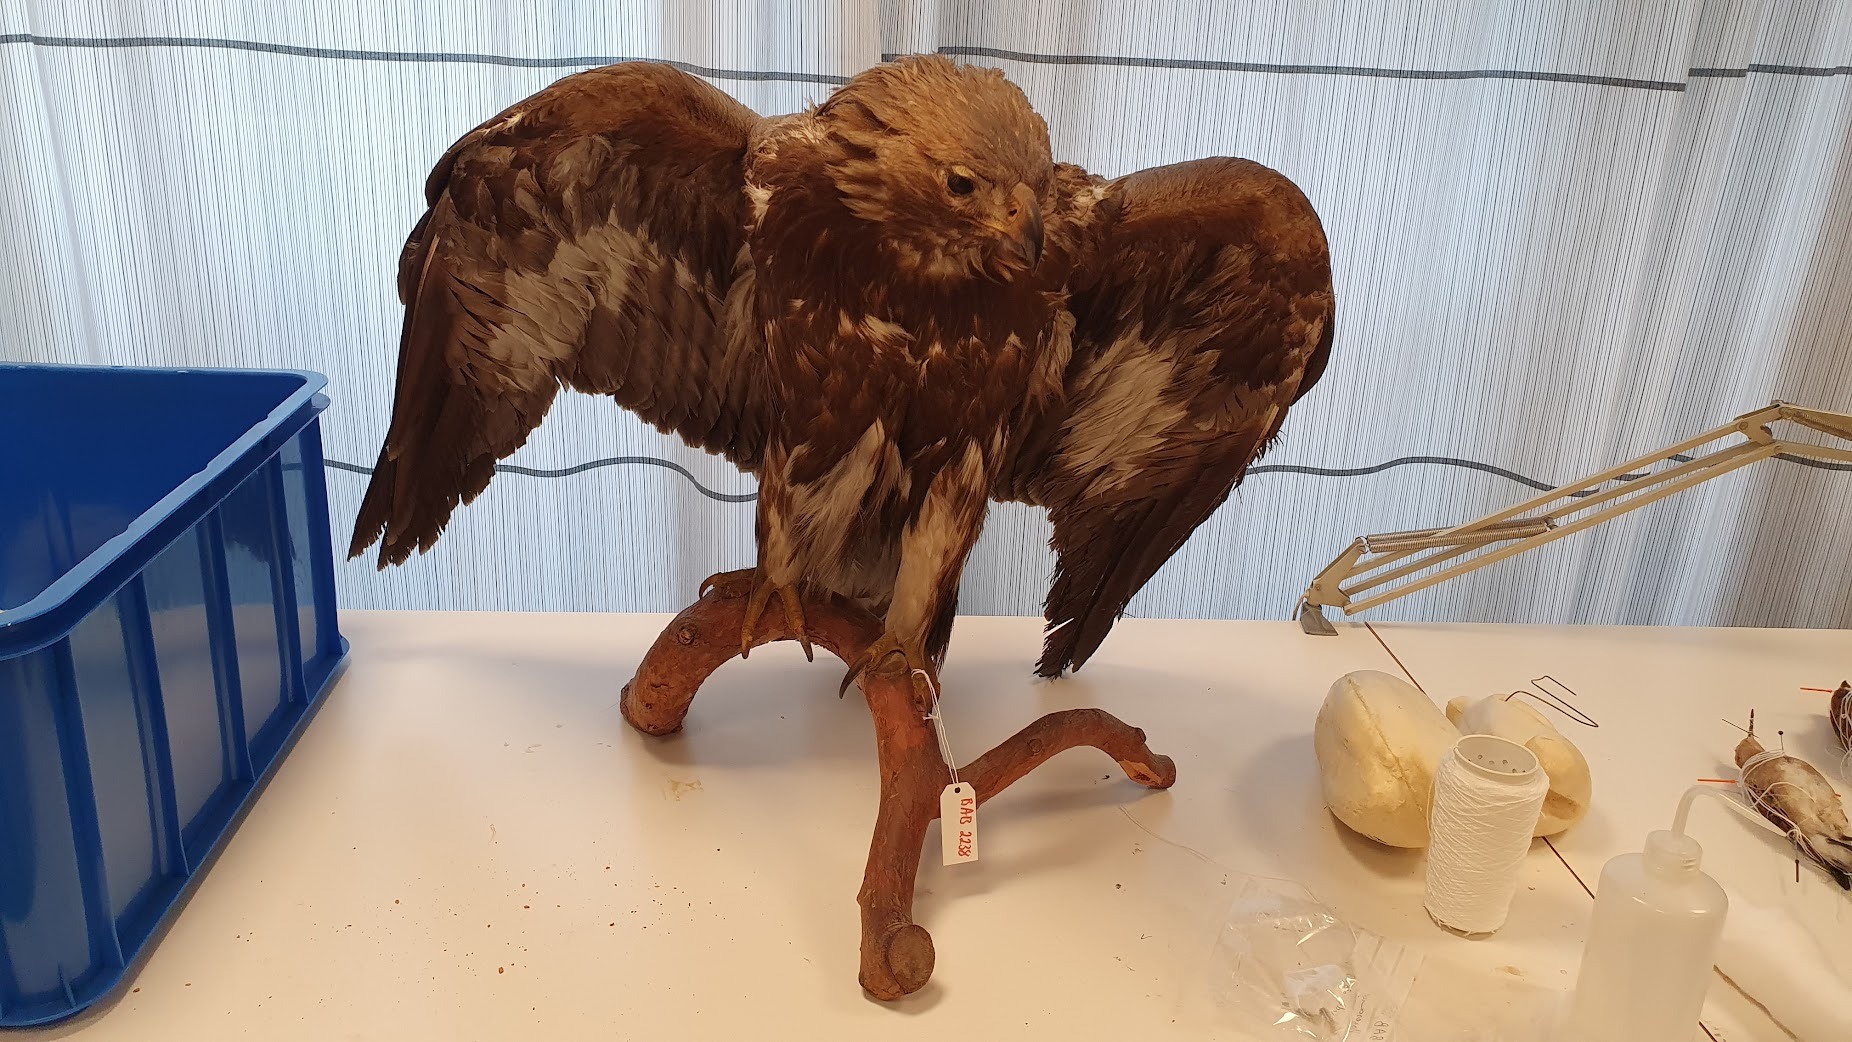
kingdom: Animalia
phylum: Chordata
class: Aves
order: Accipitriformes
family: Accipitridae
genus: Aquila
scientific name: Aquila chrysaetos
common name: Golden eagle
